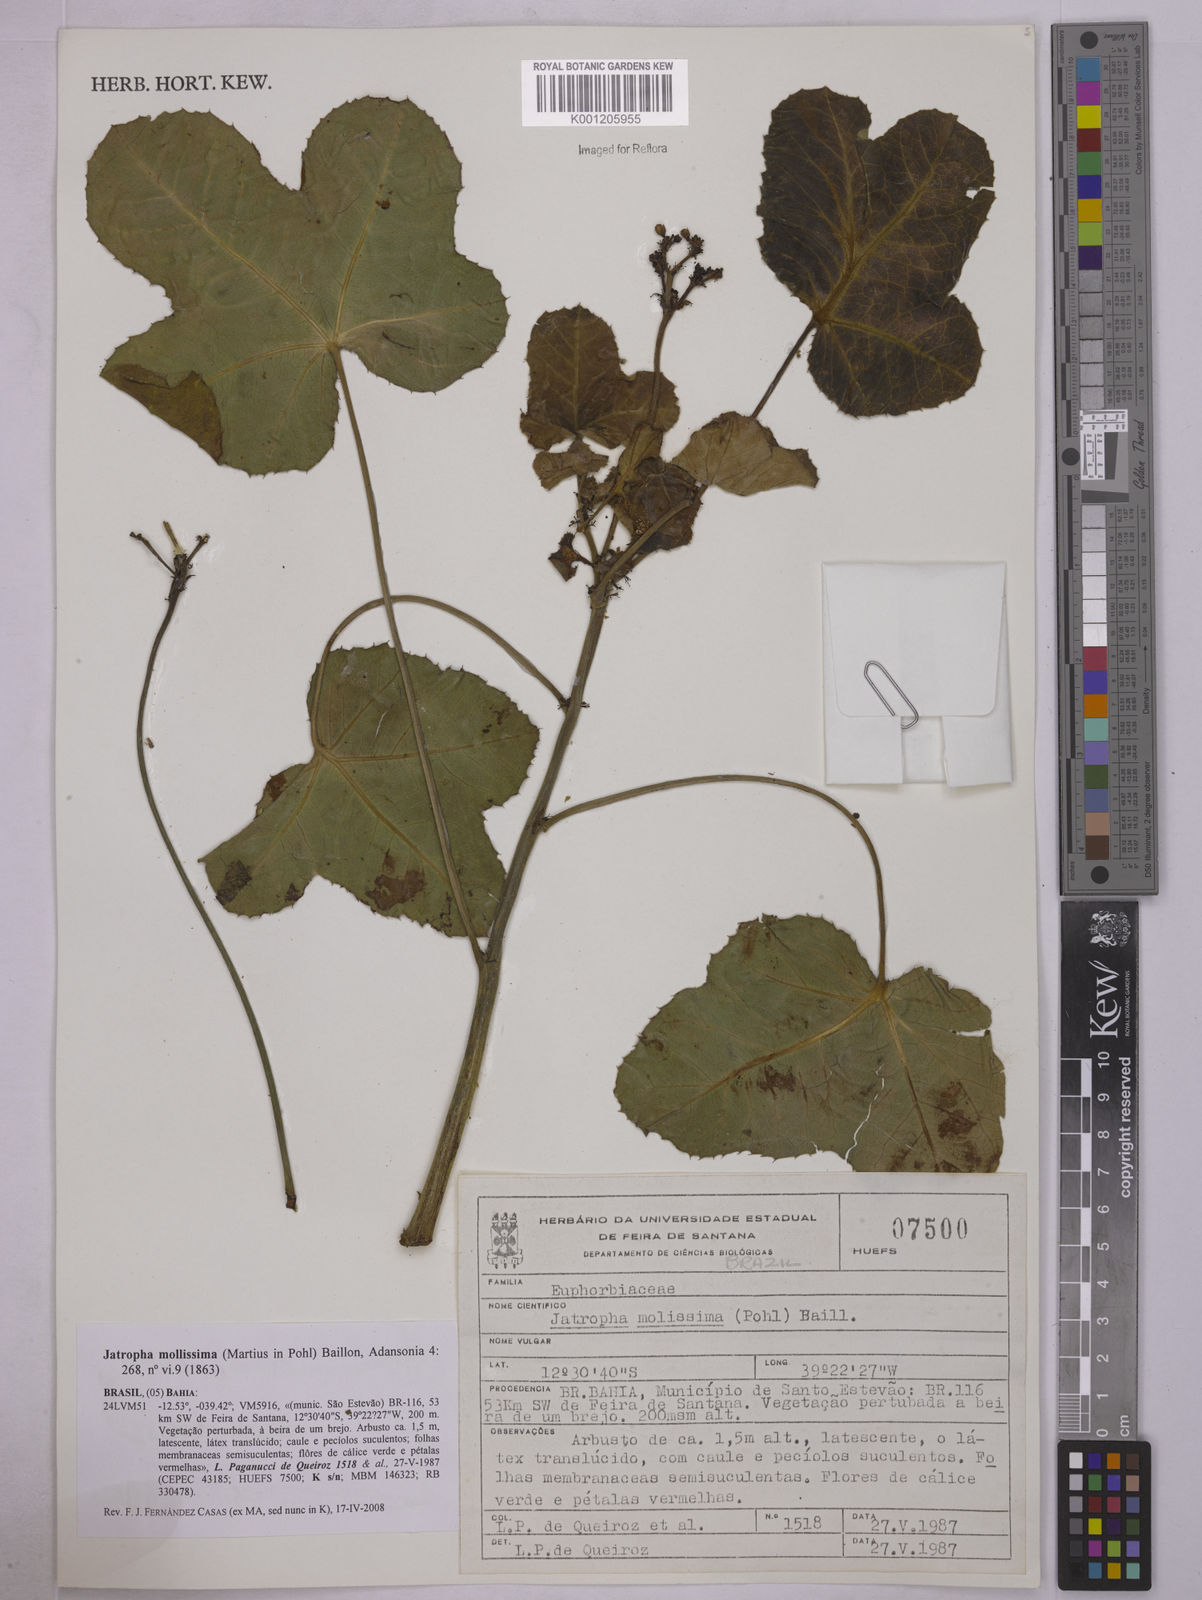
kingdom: Plantae
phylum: Tracheophyta
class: Magnoliopsida
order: Malpighiales
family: Euphorbiaceae
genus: Jatropha
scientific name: Jatropha mollissima
